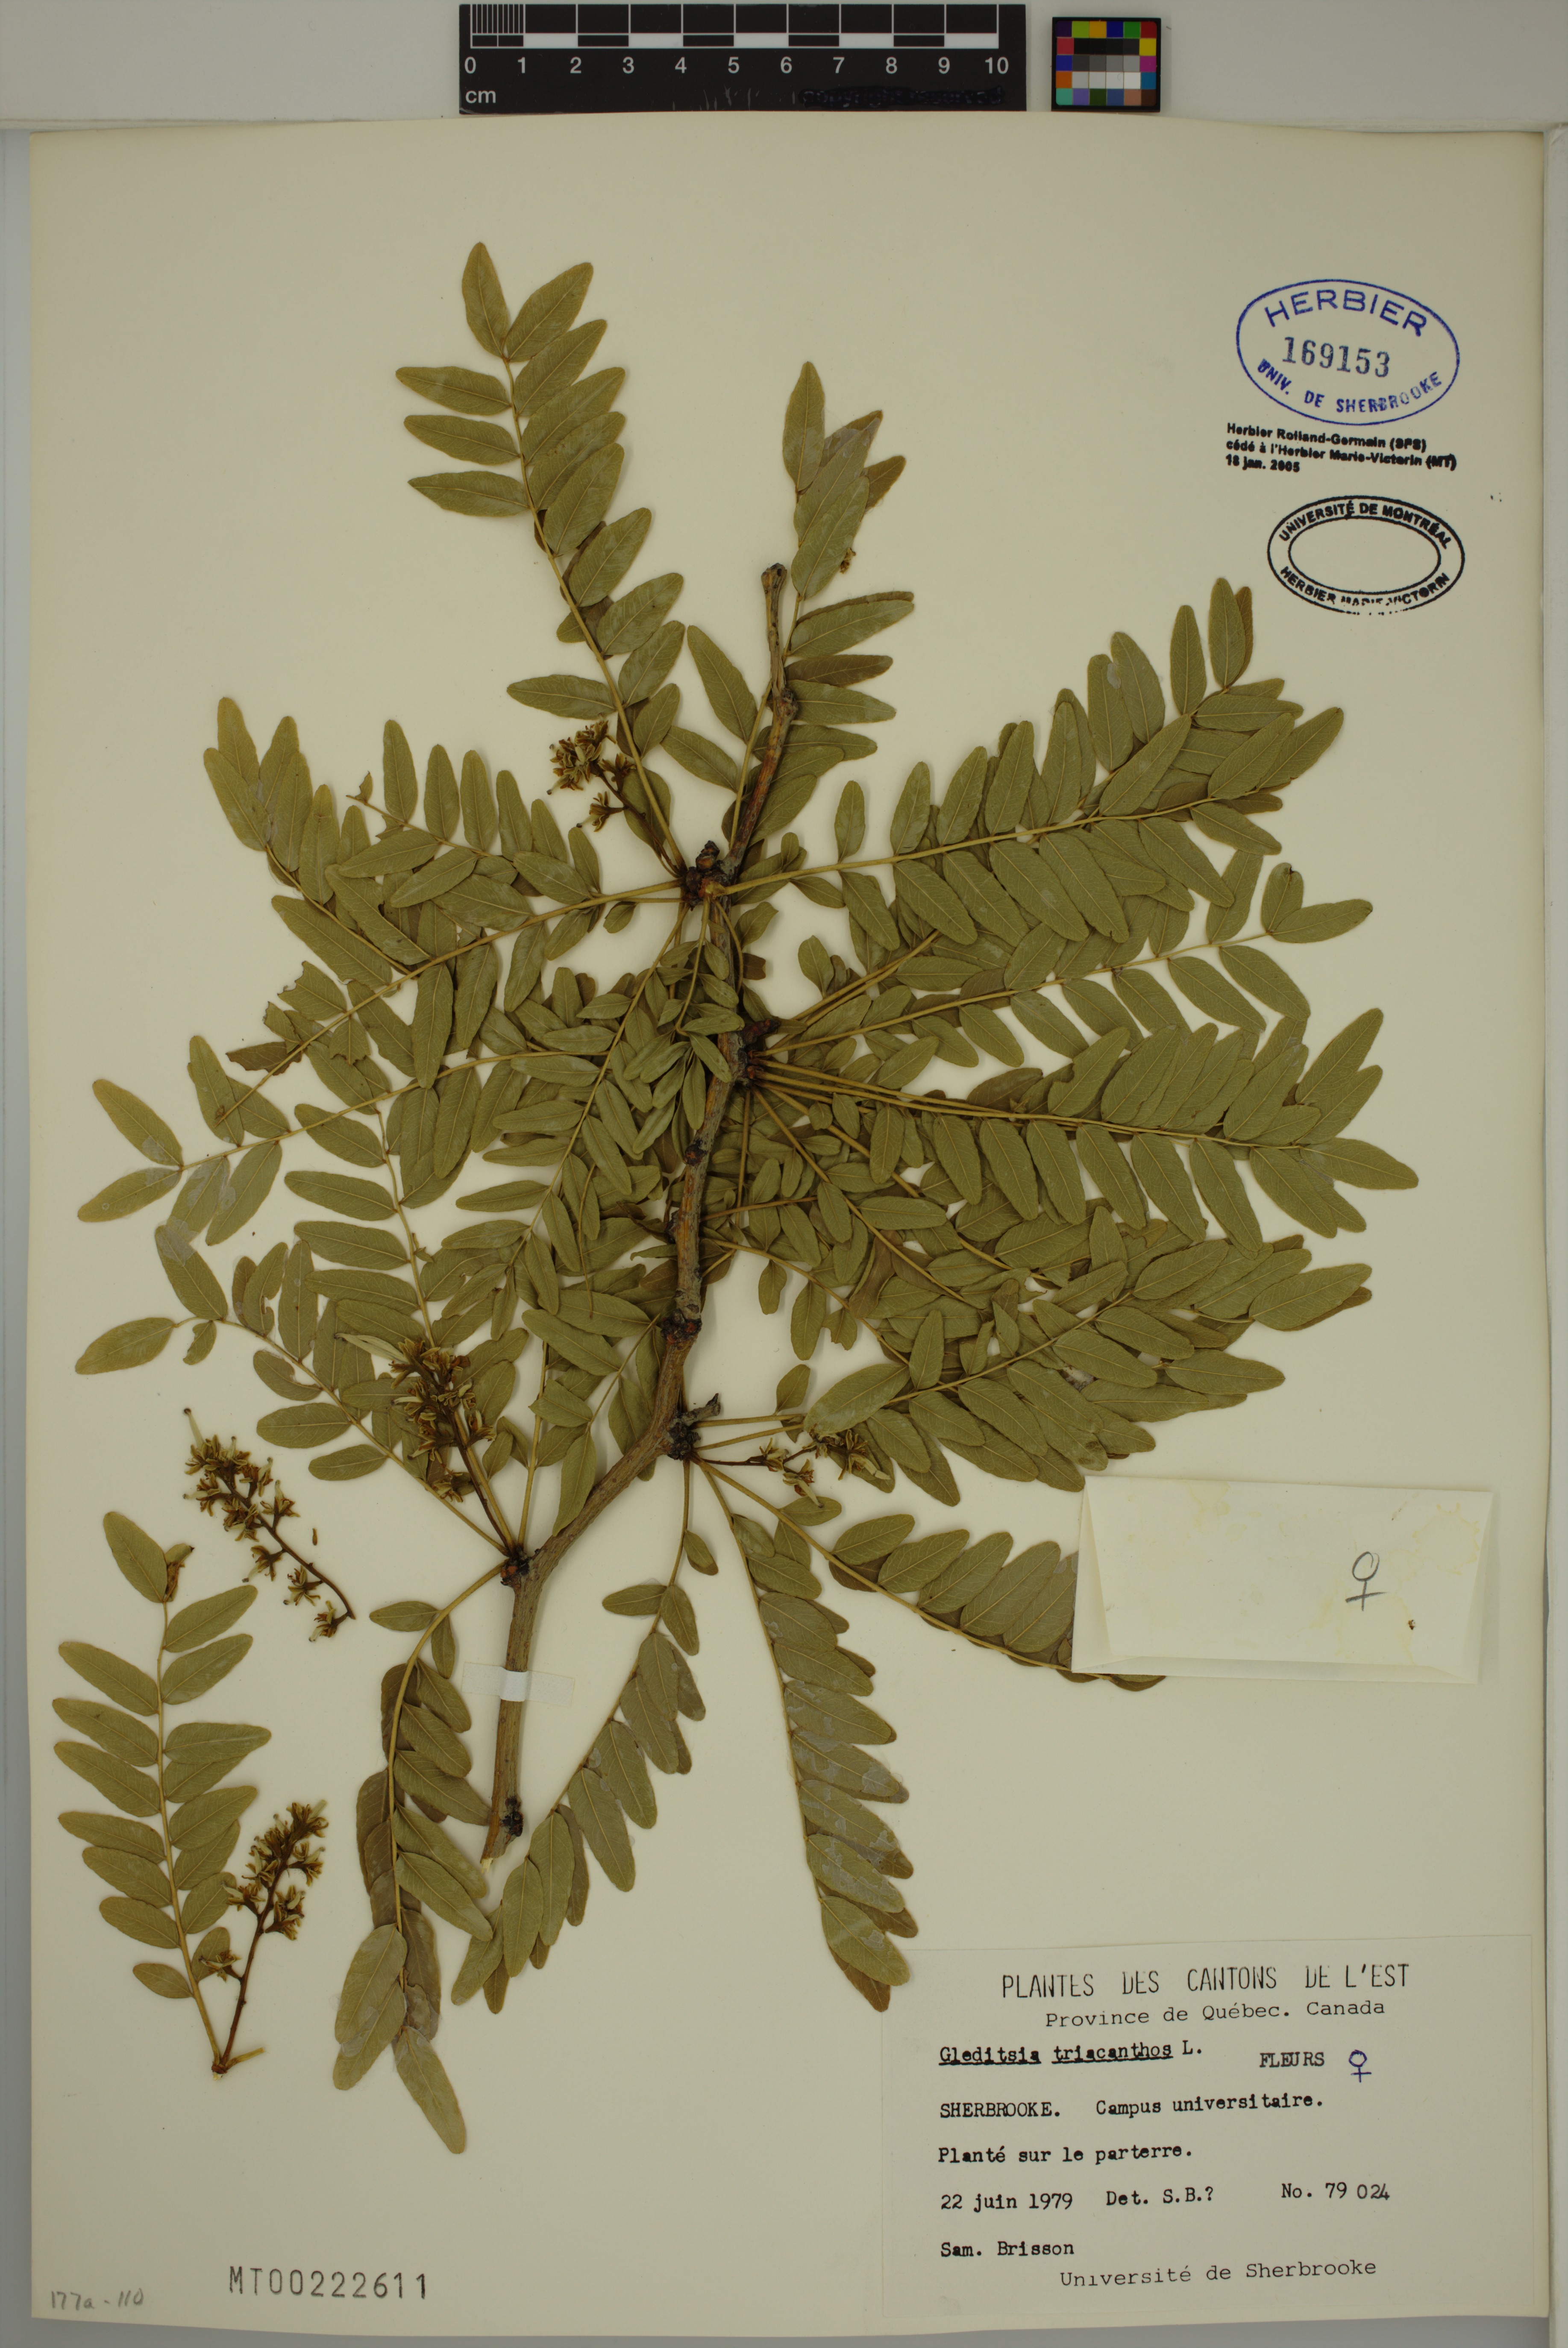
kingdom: Plantae
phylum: Tracheophyta
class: Magnoliopsida
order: Fabales
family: Fabaceae
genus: Gleditsia
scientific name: Gleditsia triacanthos
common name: Common honeylocust
